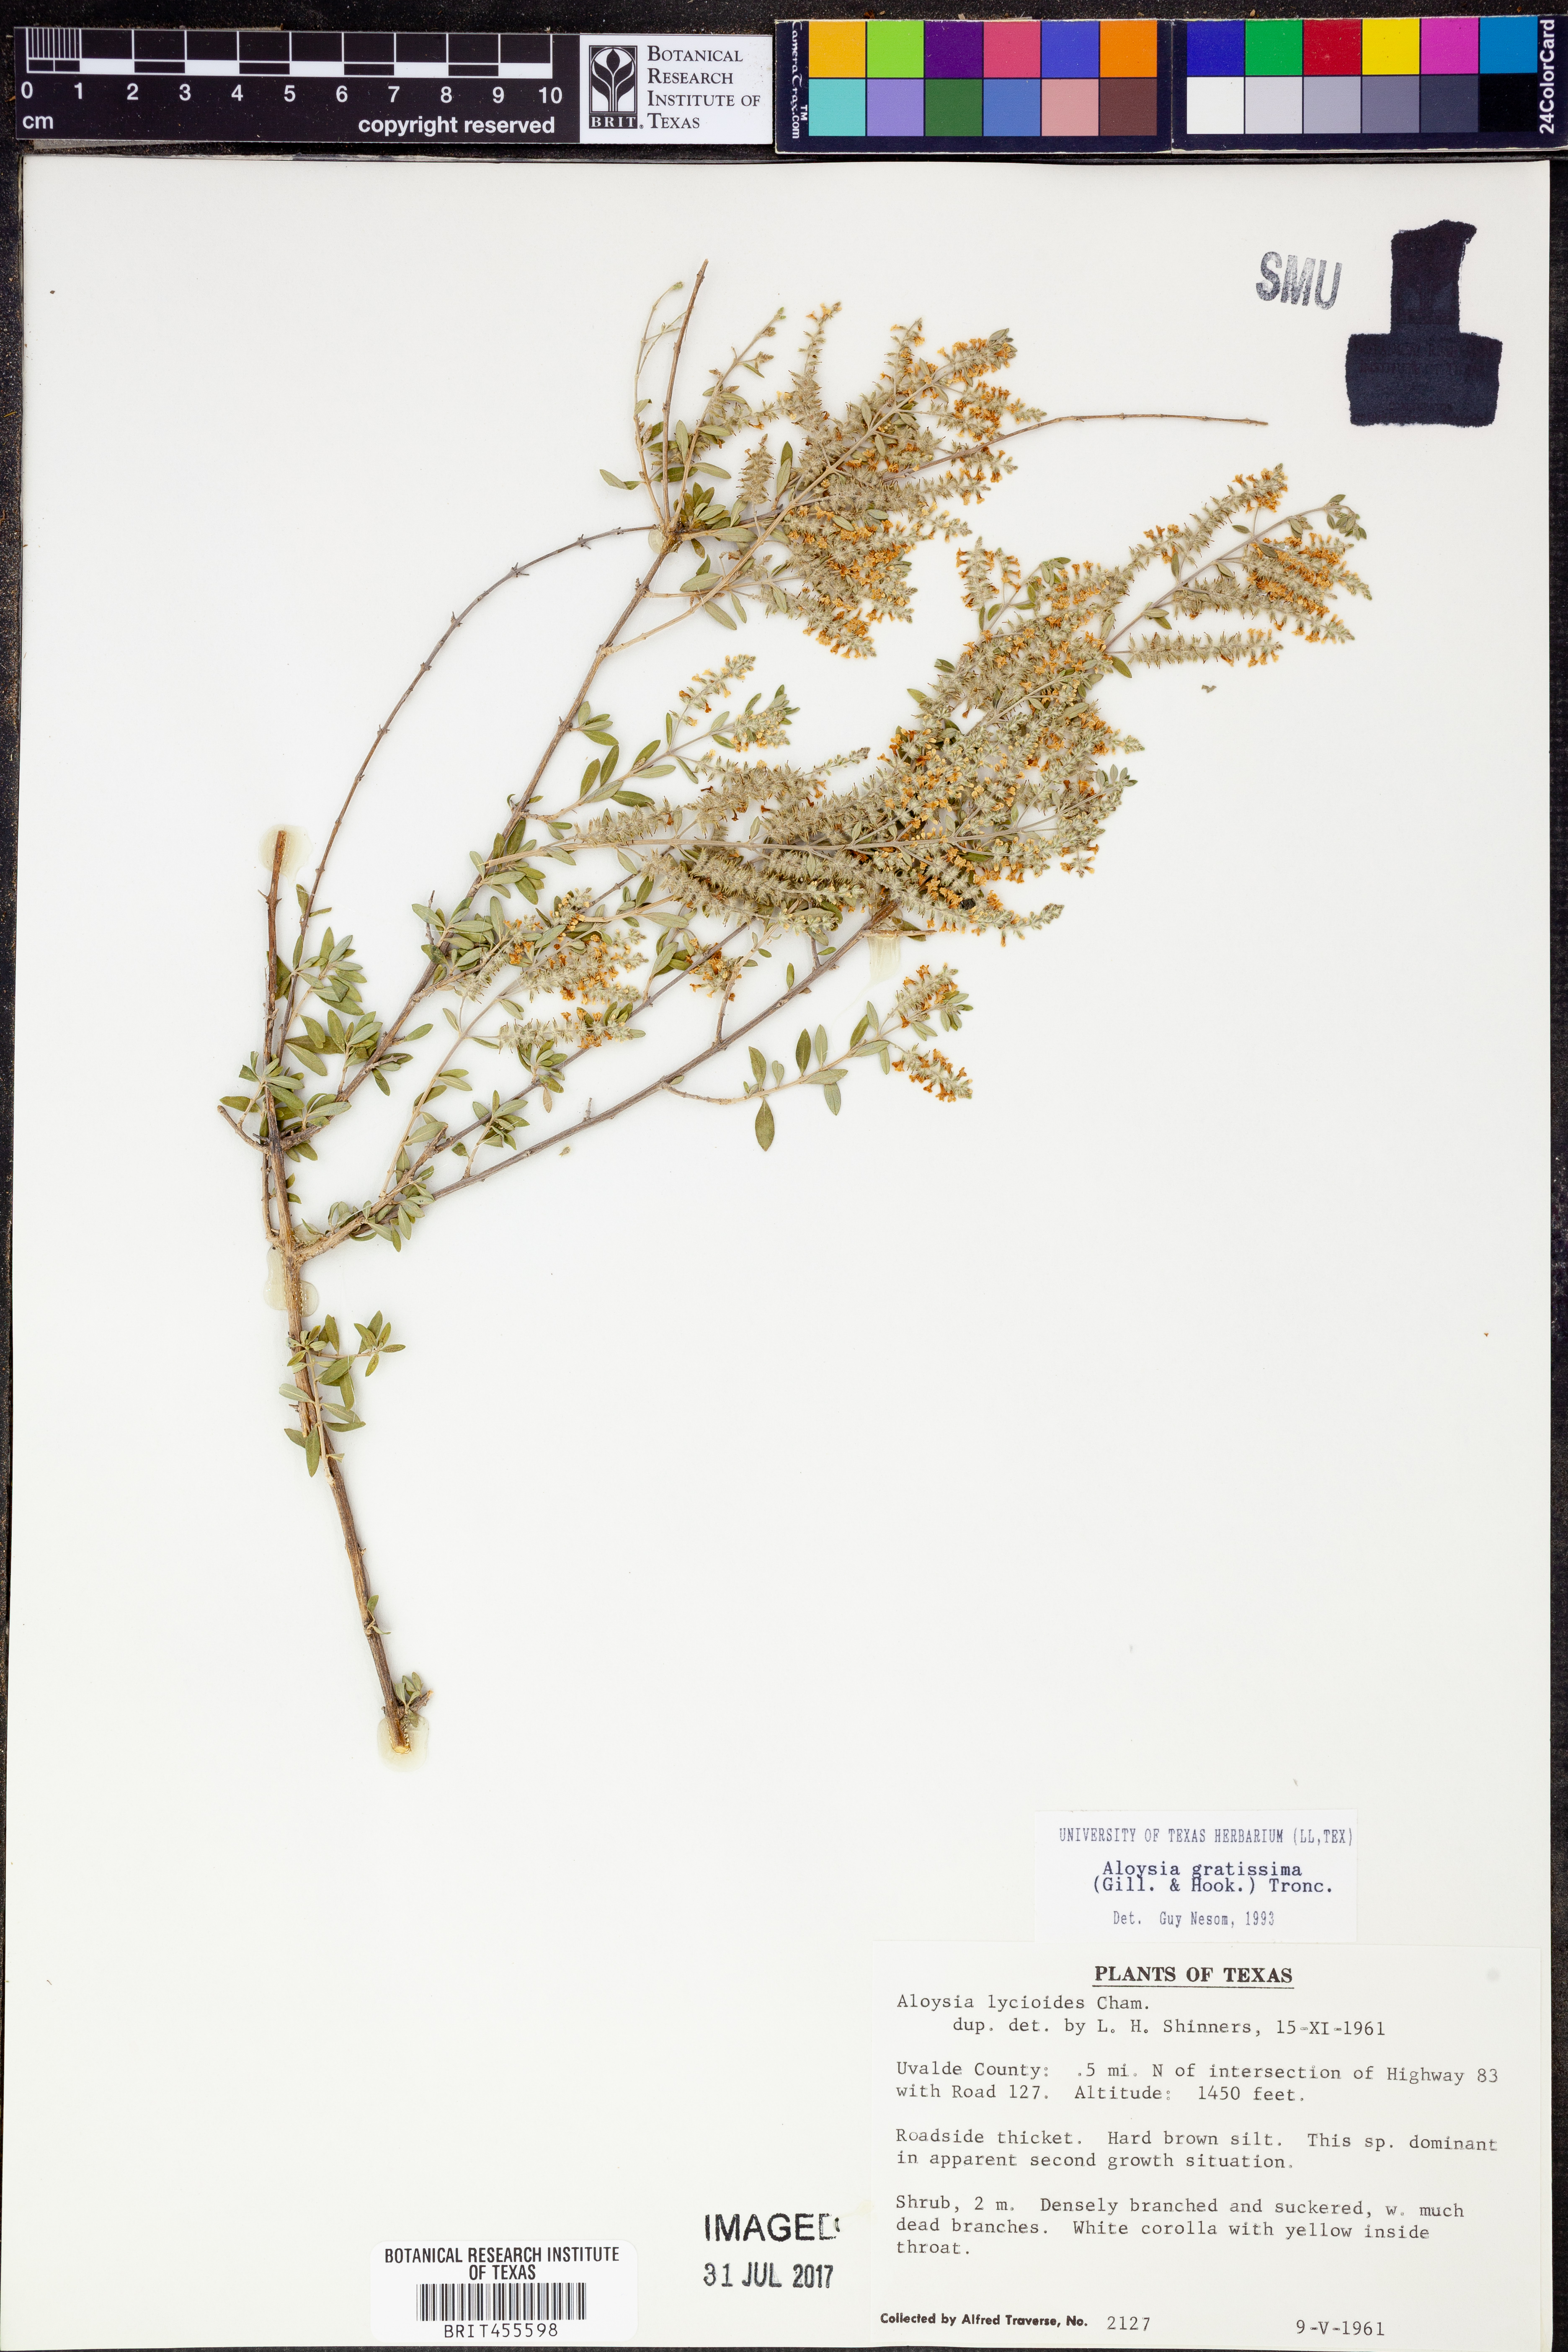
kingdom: Plantae
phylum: Tracheophyta
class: Magnoliopsida
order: Lamiales
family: Verbenaceae
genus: Aloysia
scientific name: Aloysia gratissima
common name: Common bee-brush
